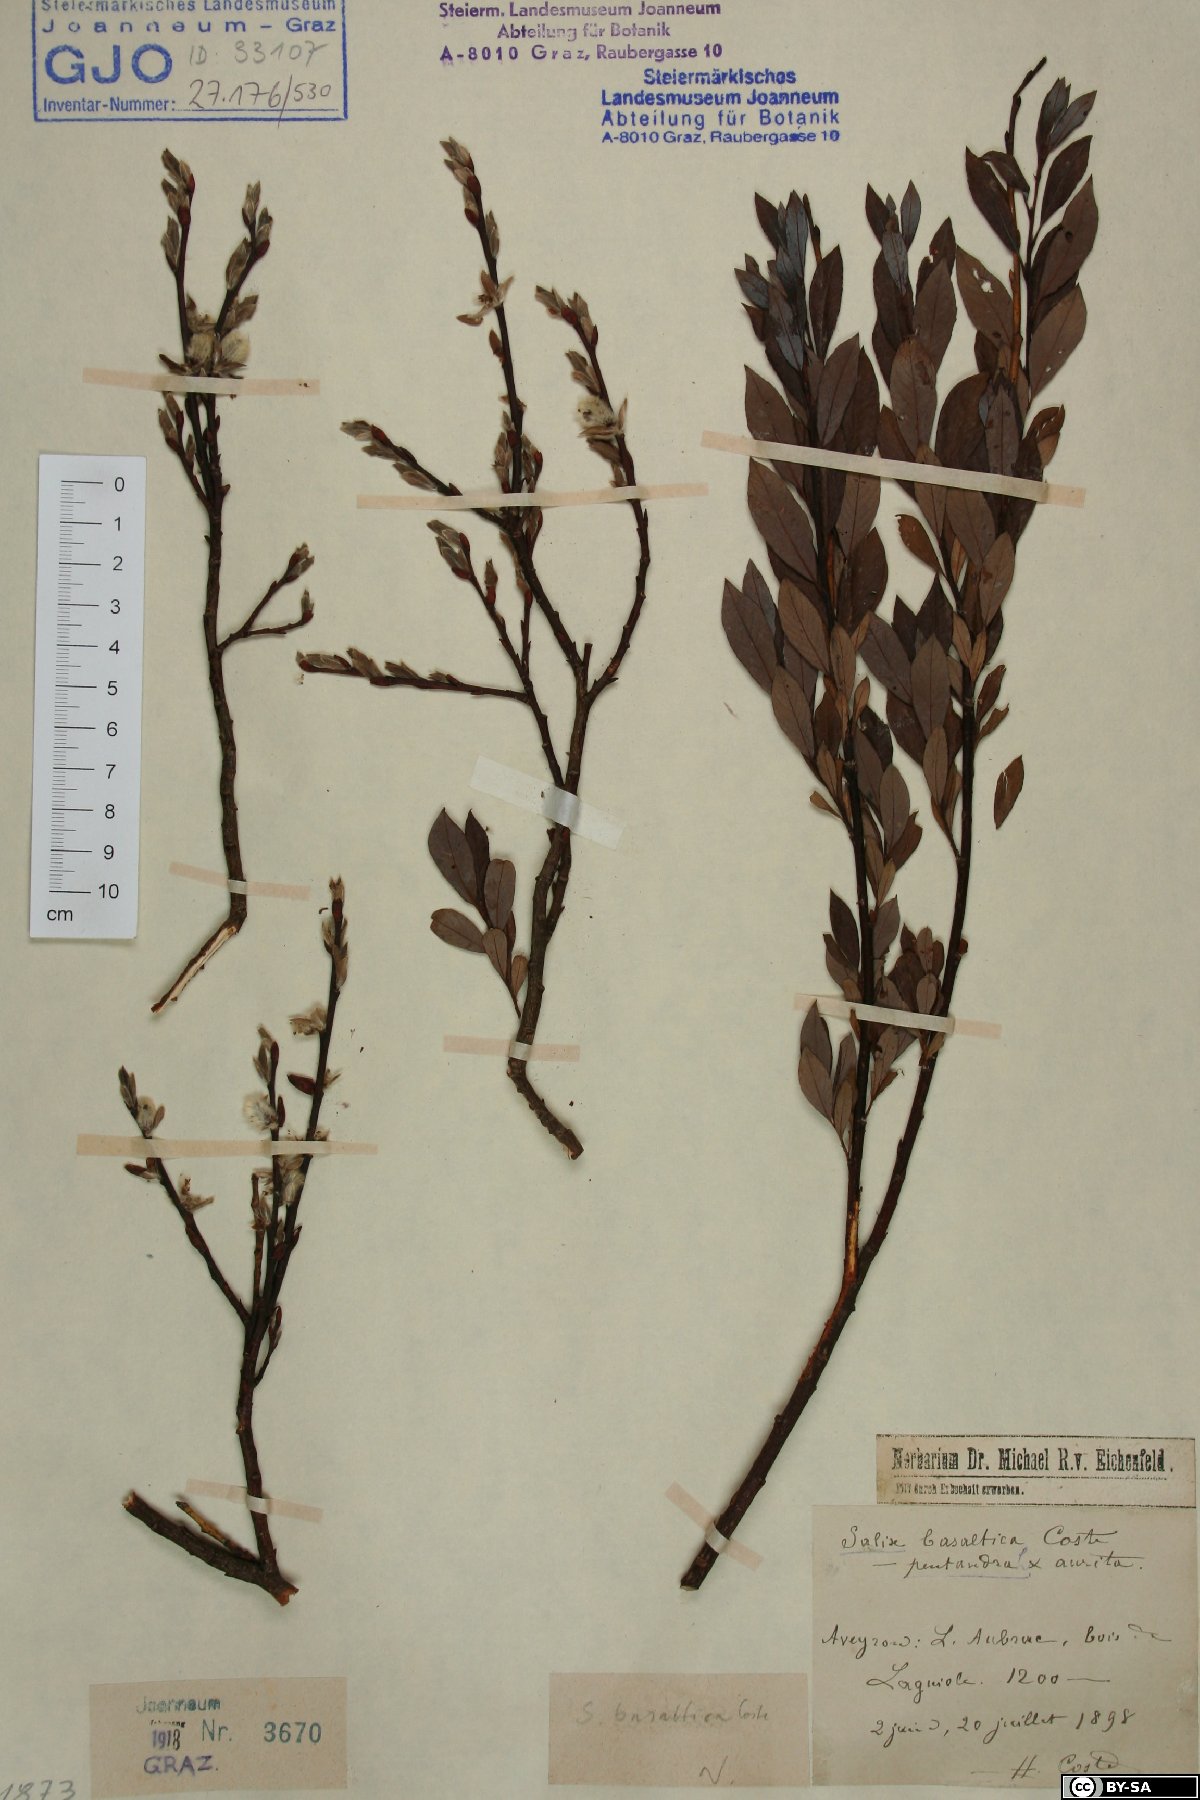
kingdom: Plantae
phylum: Tracheophyta
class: Magnoliopsida
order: Malpighiales
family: Salicaceae
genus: Salix
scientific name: Salix basaltica
